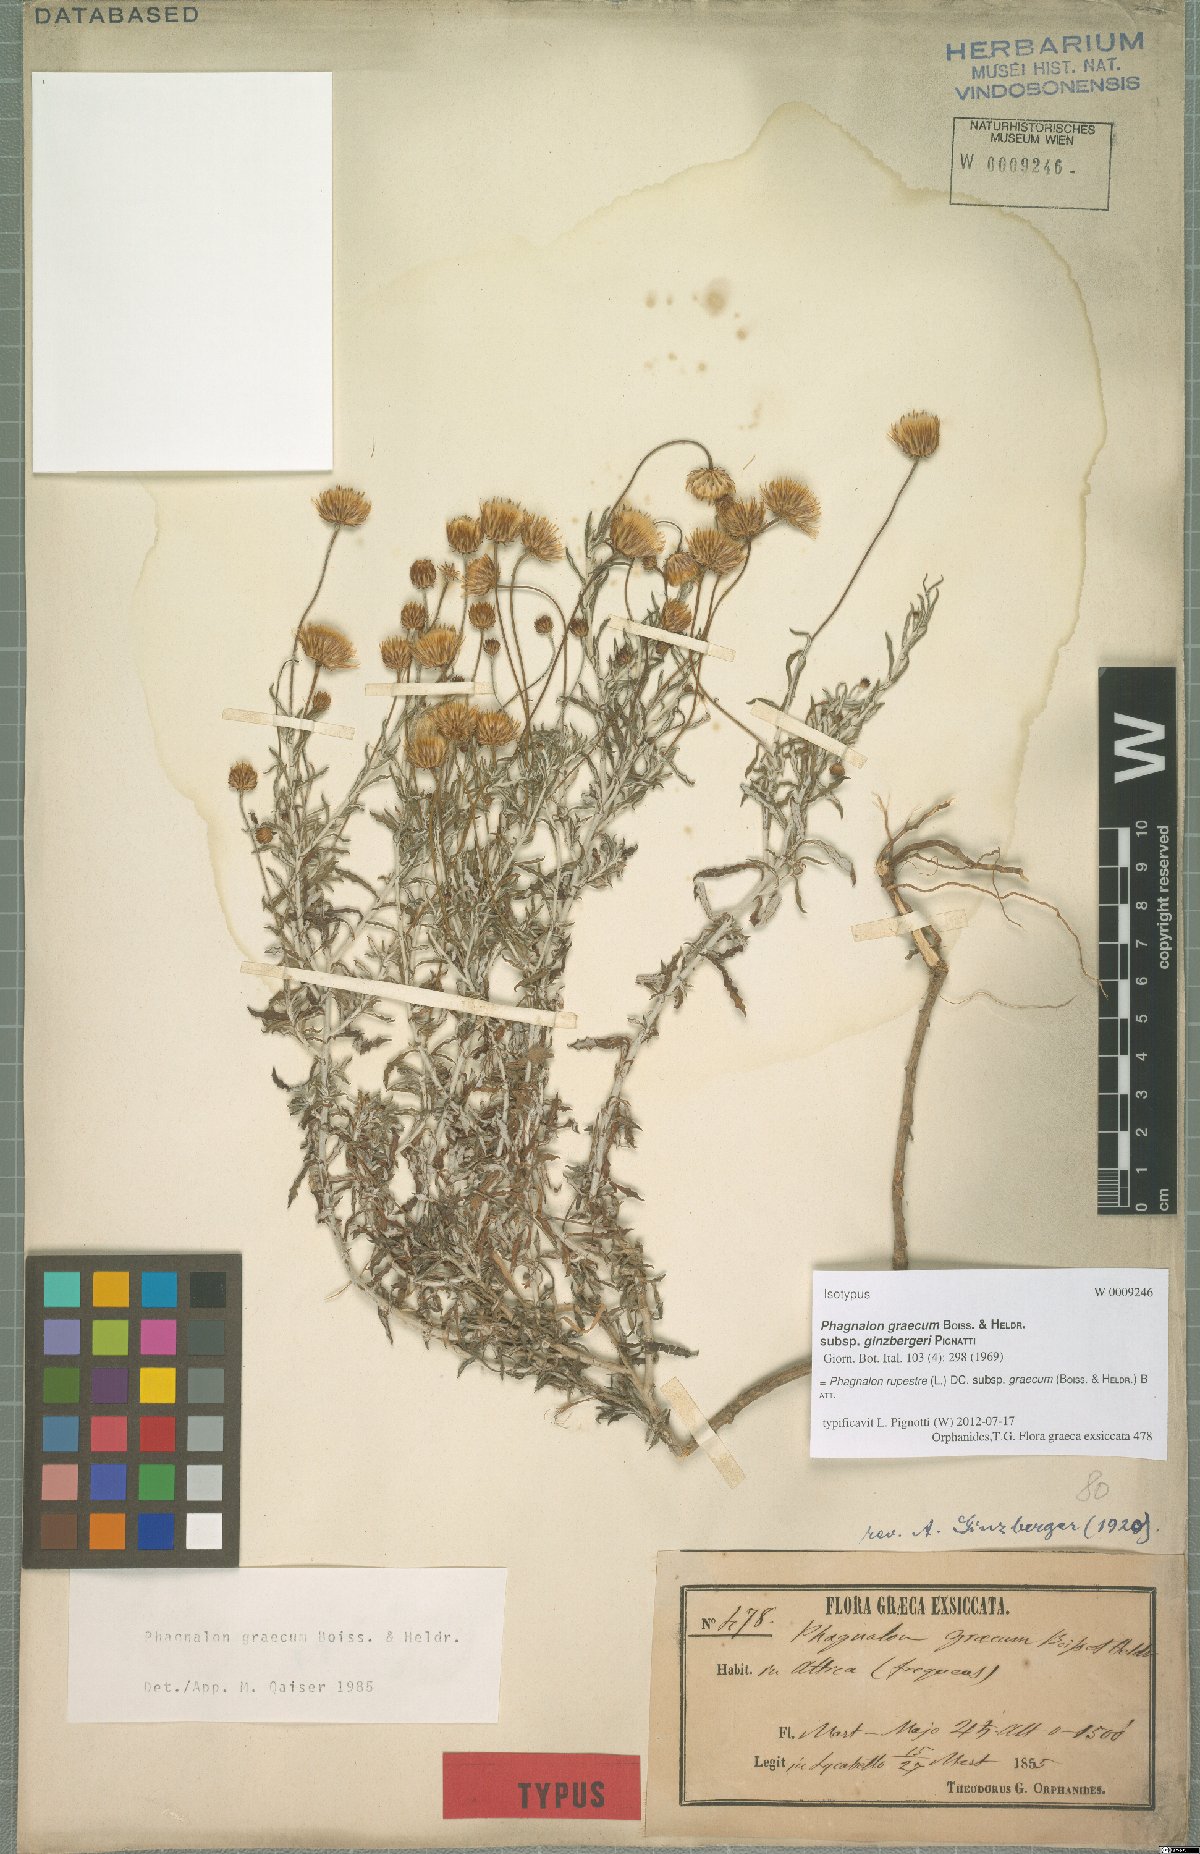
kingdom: Plantae
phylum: Tracheophyta
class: Magnoliopsida
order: Asterales
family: Asteraceae
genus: Phagnalon
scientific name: Phagnalon graecum
